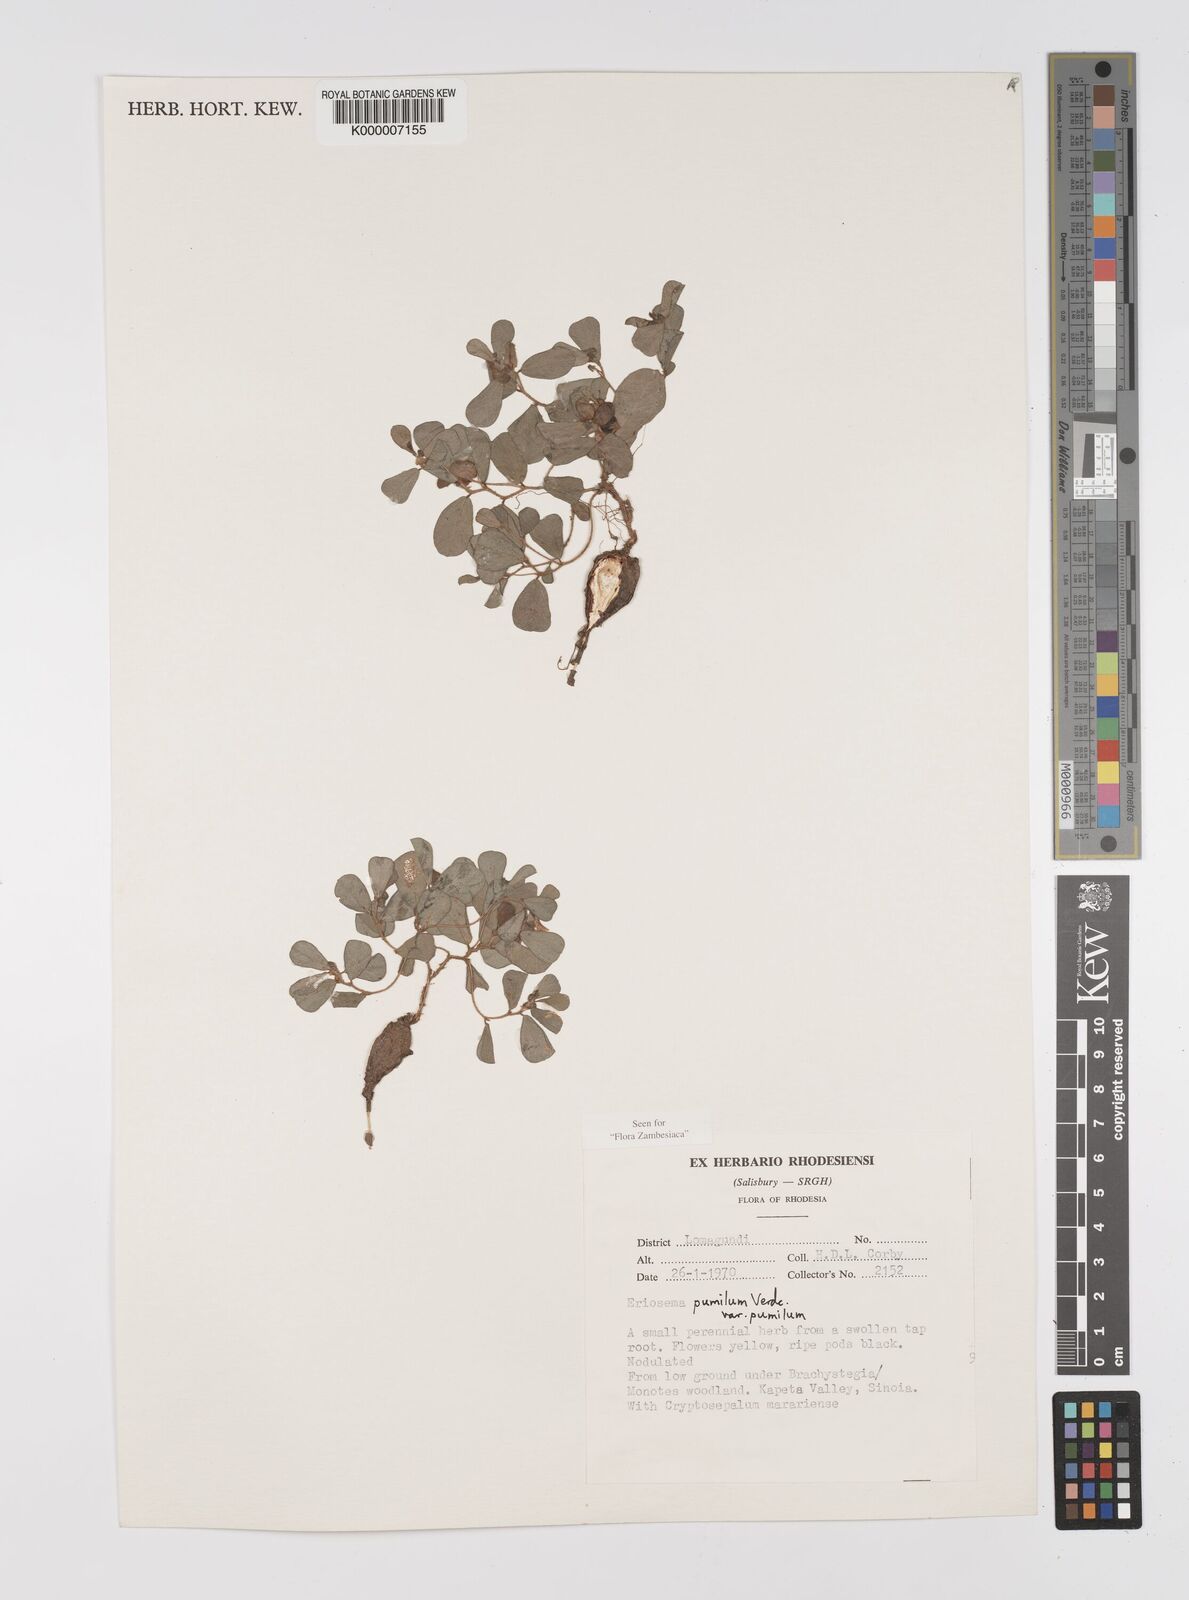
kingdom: Plantae
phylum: Tracheophyta
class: Magnoliopsida
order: Fabales
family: Fabaceae
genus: Eriosema
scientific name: Eriosema pumilum
